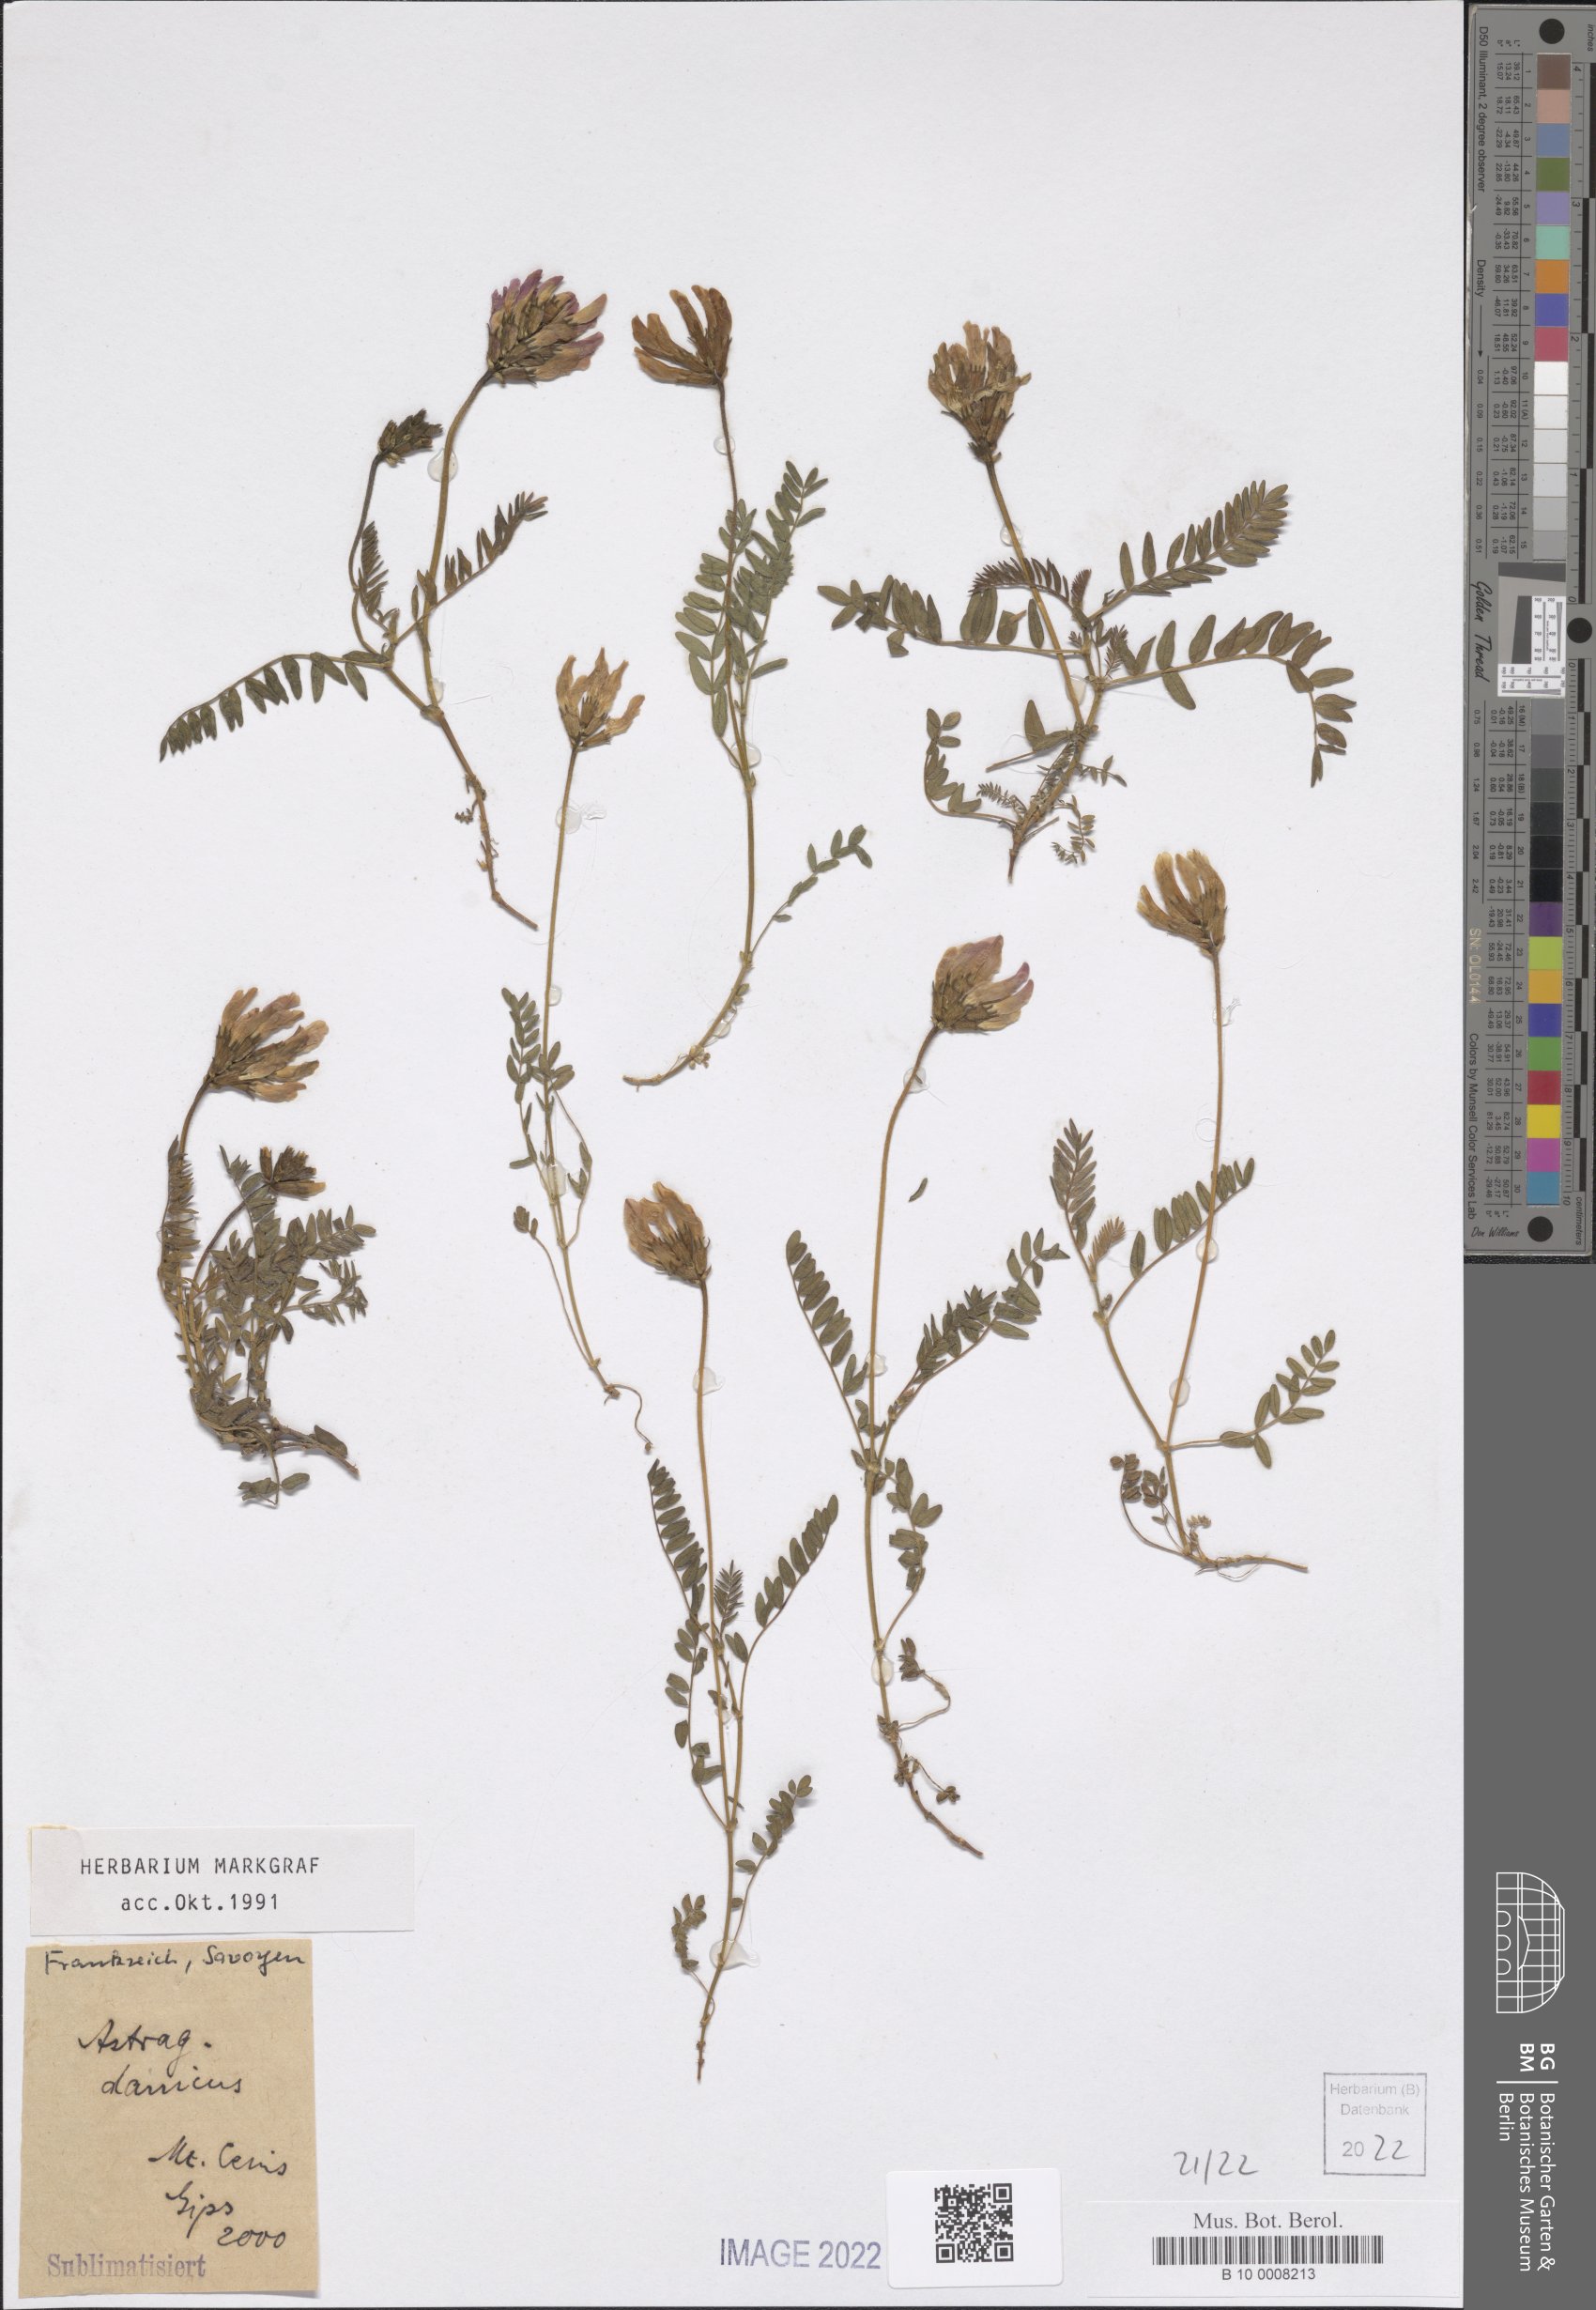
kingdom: Plantae
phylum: Tracheophyta
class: Magnoliopsida
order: Fabales
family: Fabaceae
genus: Astragalus
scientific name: Astragalus danicus
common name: Purple milk-vetch
